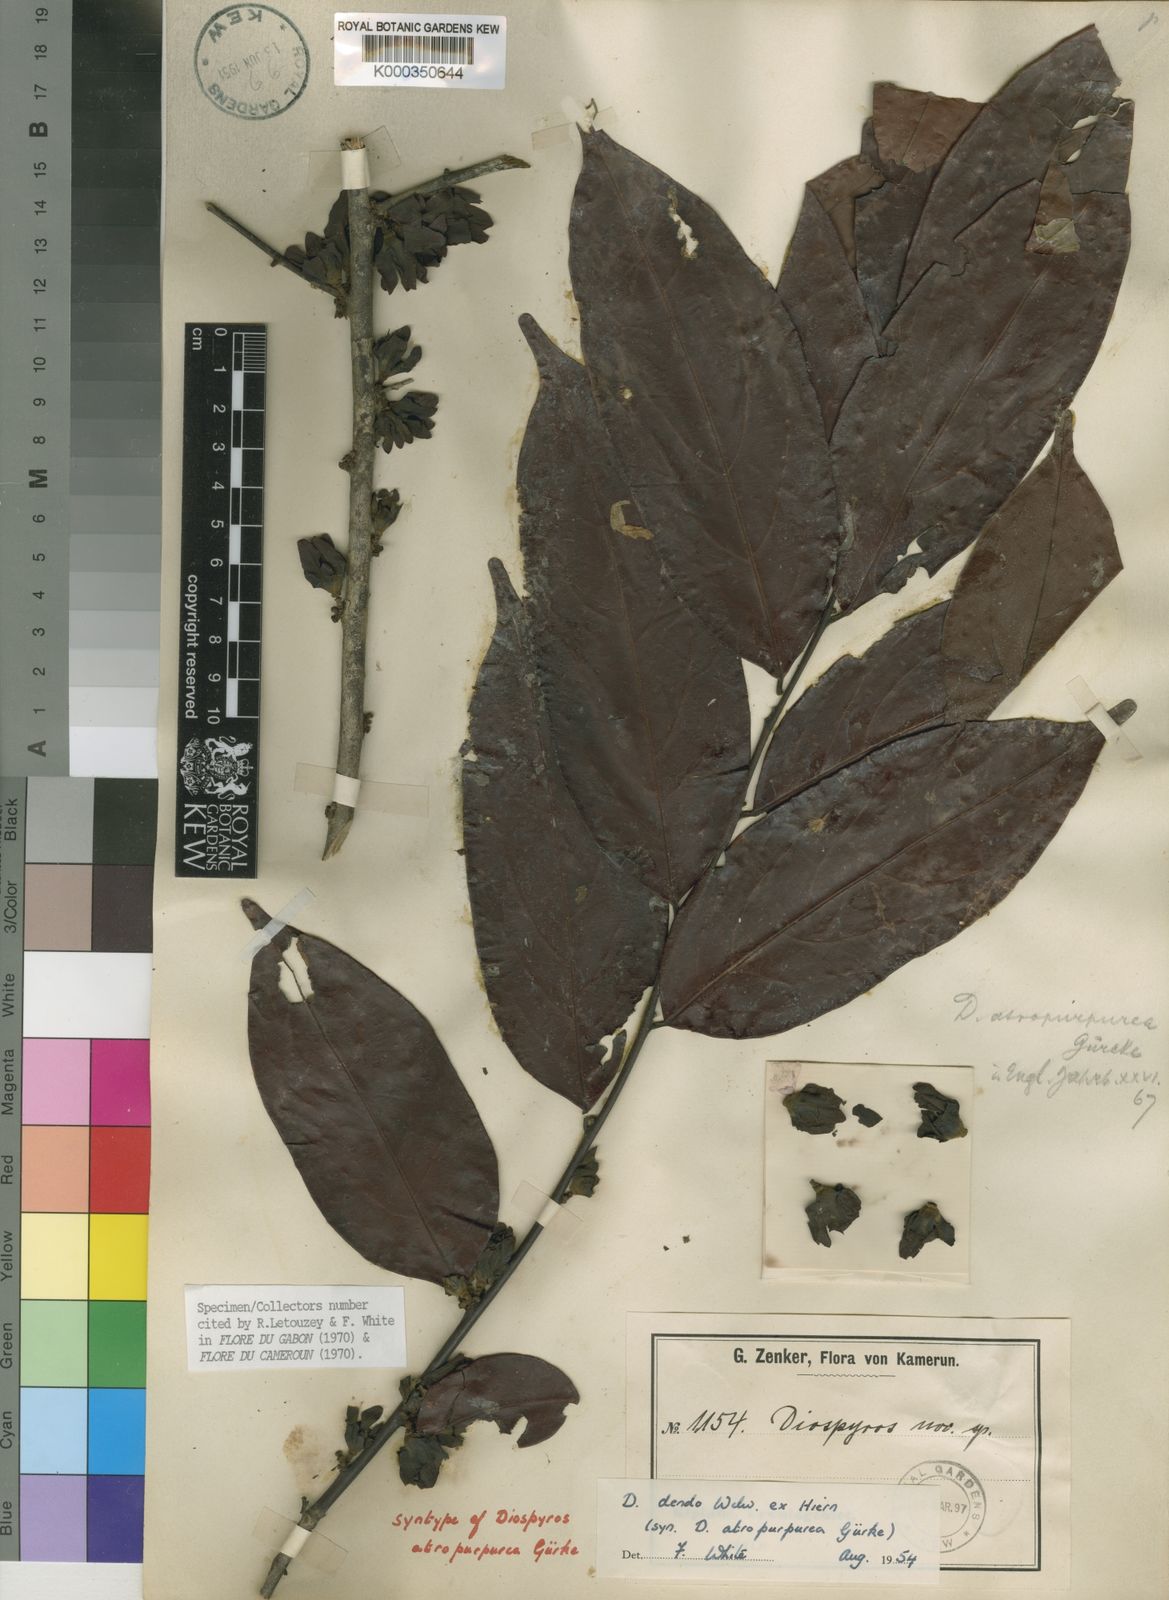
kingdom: Plantae
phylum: Tracheophyta
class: Magnoliopsida
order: Ericales
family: Ebenaceae
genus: Diospyros
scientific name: Diospyros dendo
